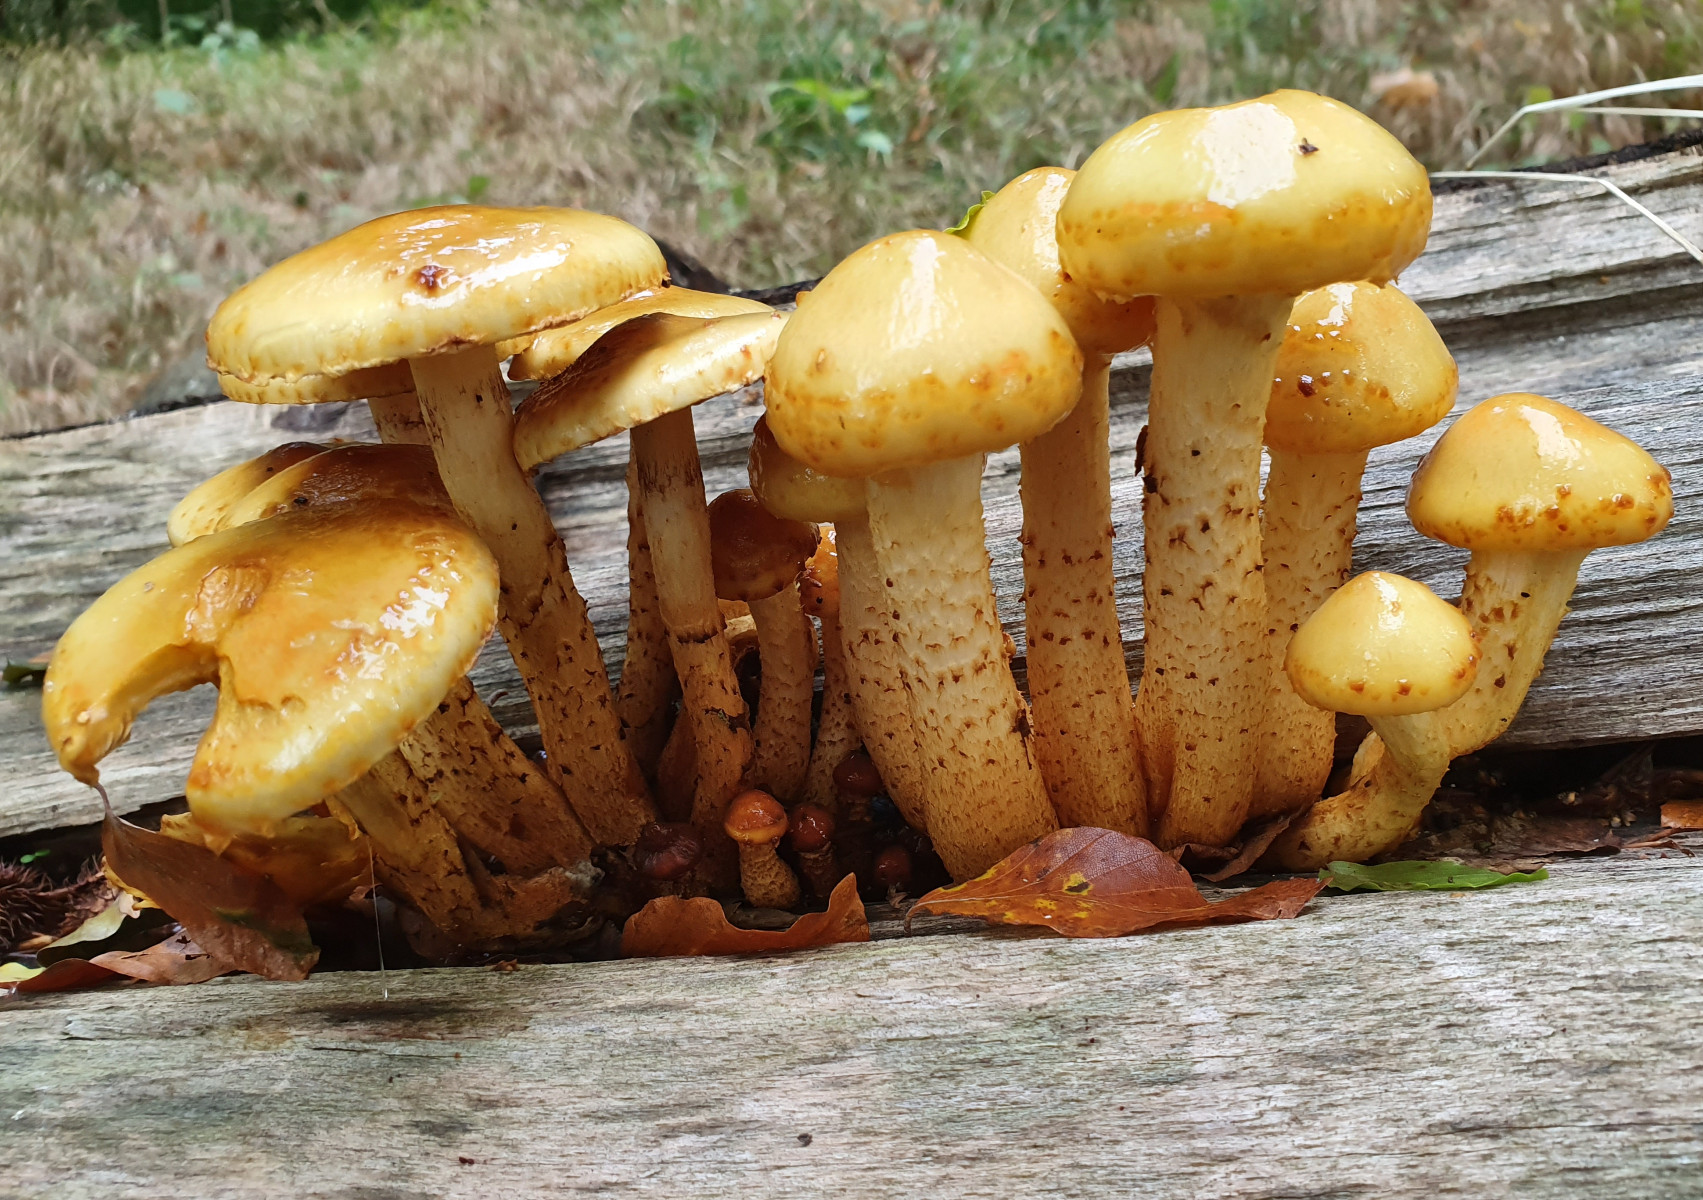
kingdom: Fungi
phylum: Basidiomycota
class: Agaricomycetes
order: Agaricales
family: Strophariaceae
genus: Pholiota
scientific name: Pholiota adiposa
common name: højtsiddende skælhat
